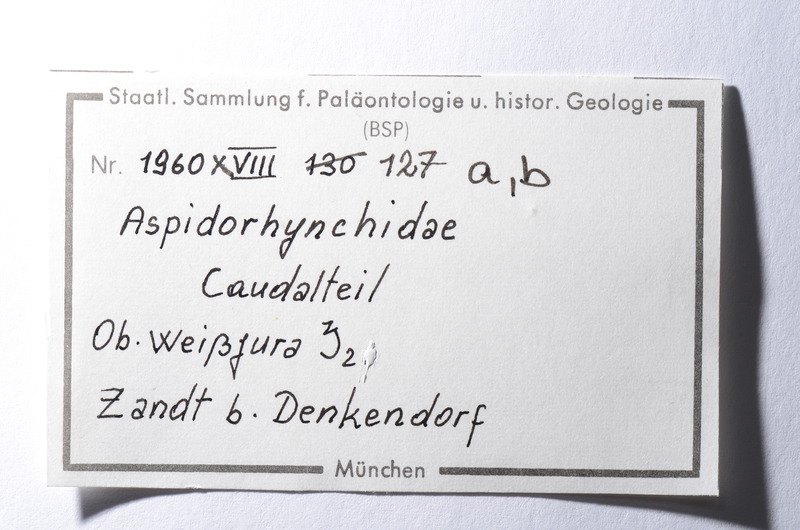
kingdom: Animalia
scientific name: Animalia
